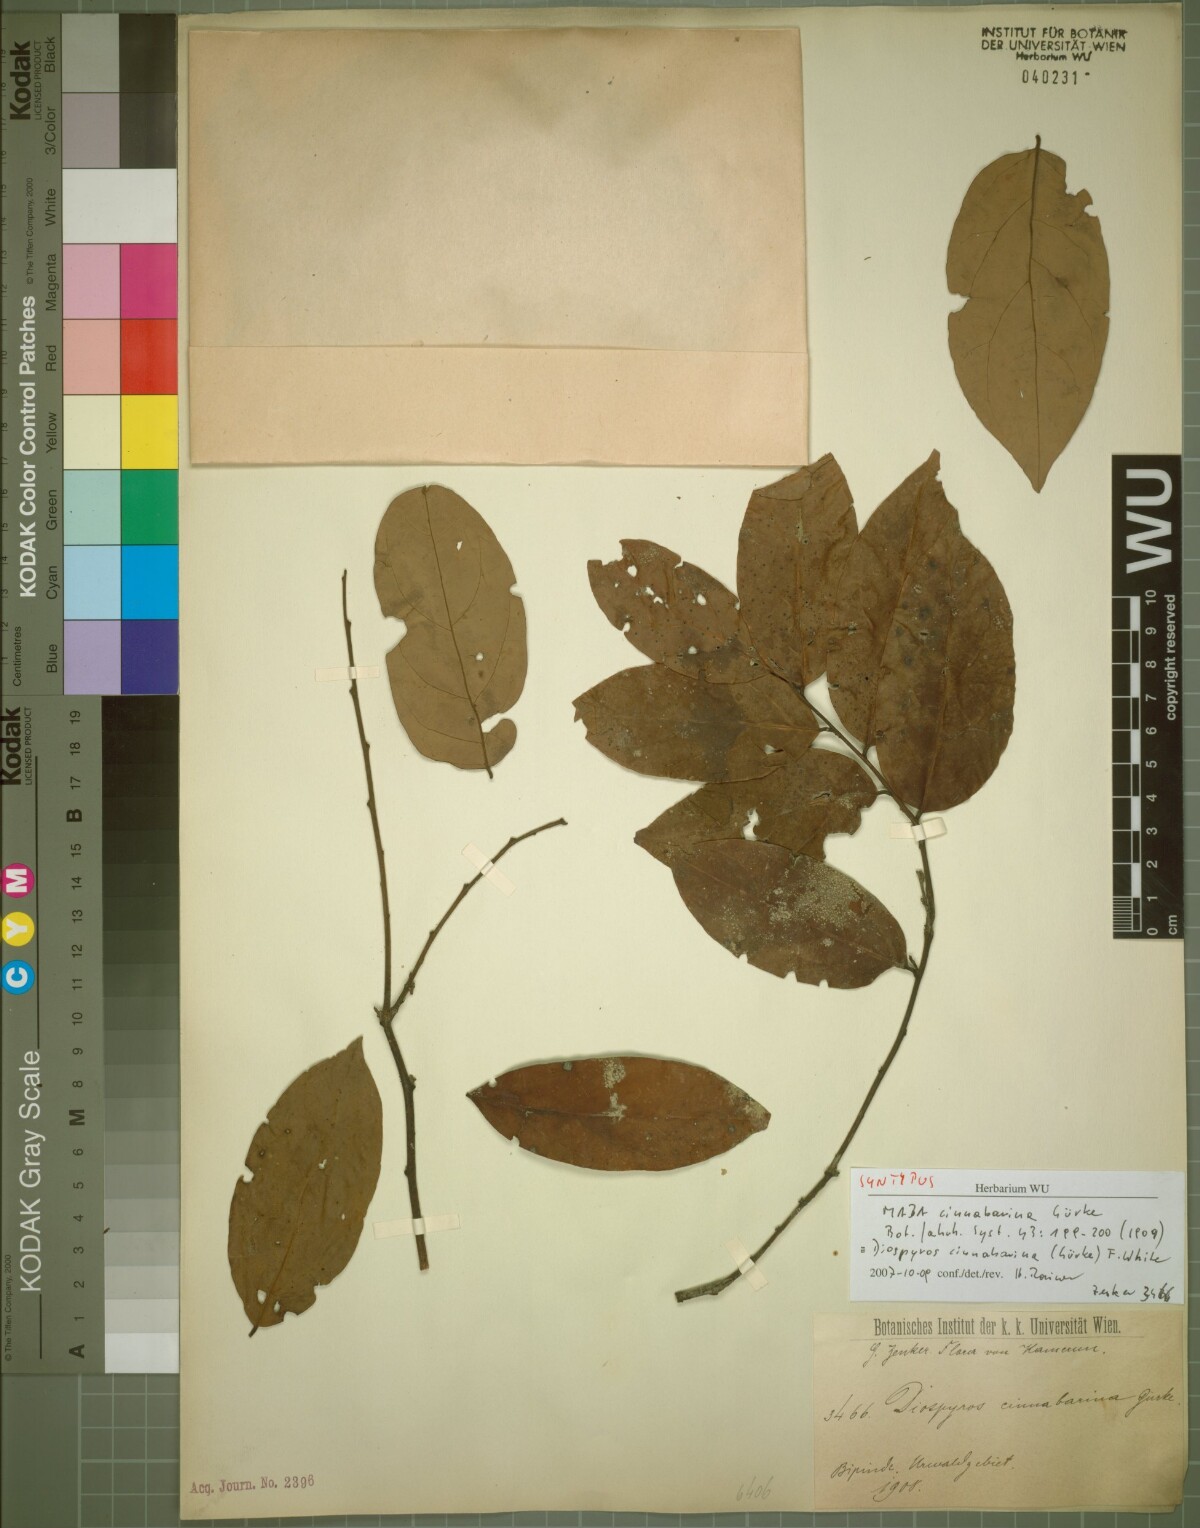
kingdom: Plantae
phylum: Tracheophyta
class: Magnoliopsida
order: Ericales
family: Ebenaceae
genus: Diospyros
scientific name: Diospyros cinnabarina
